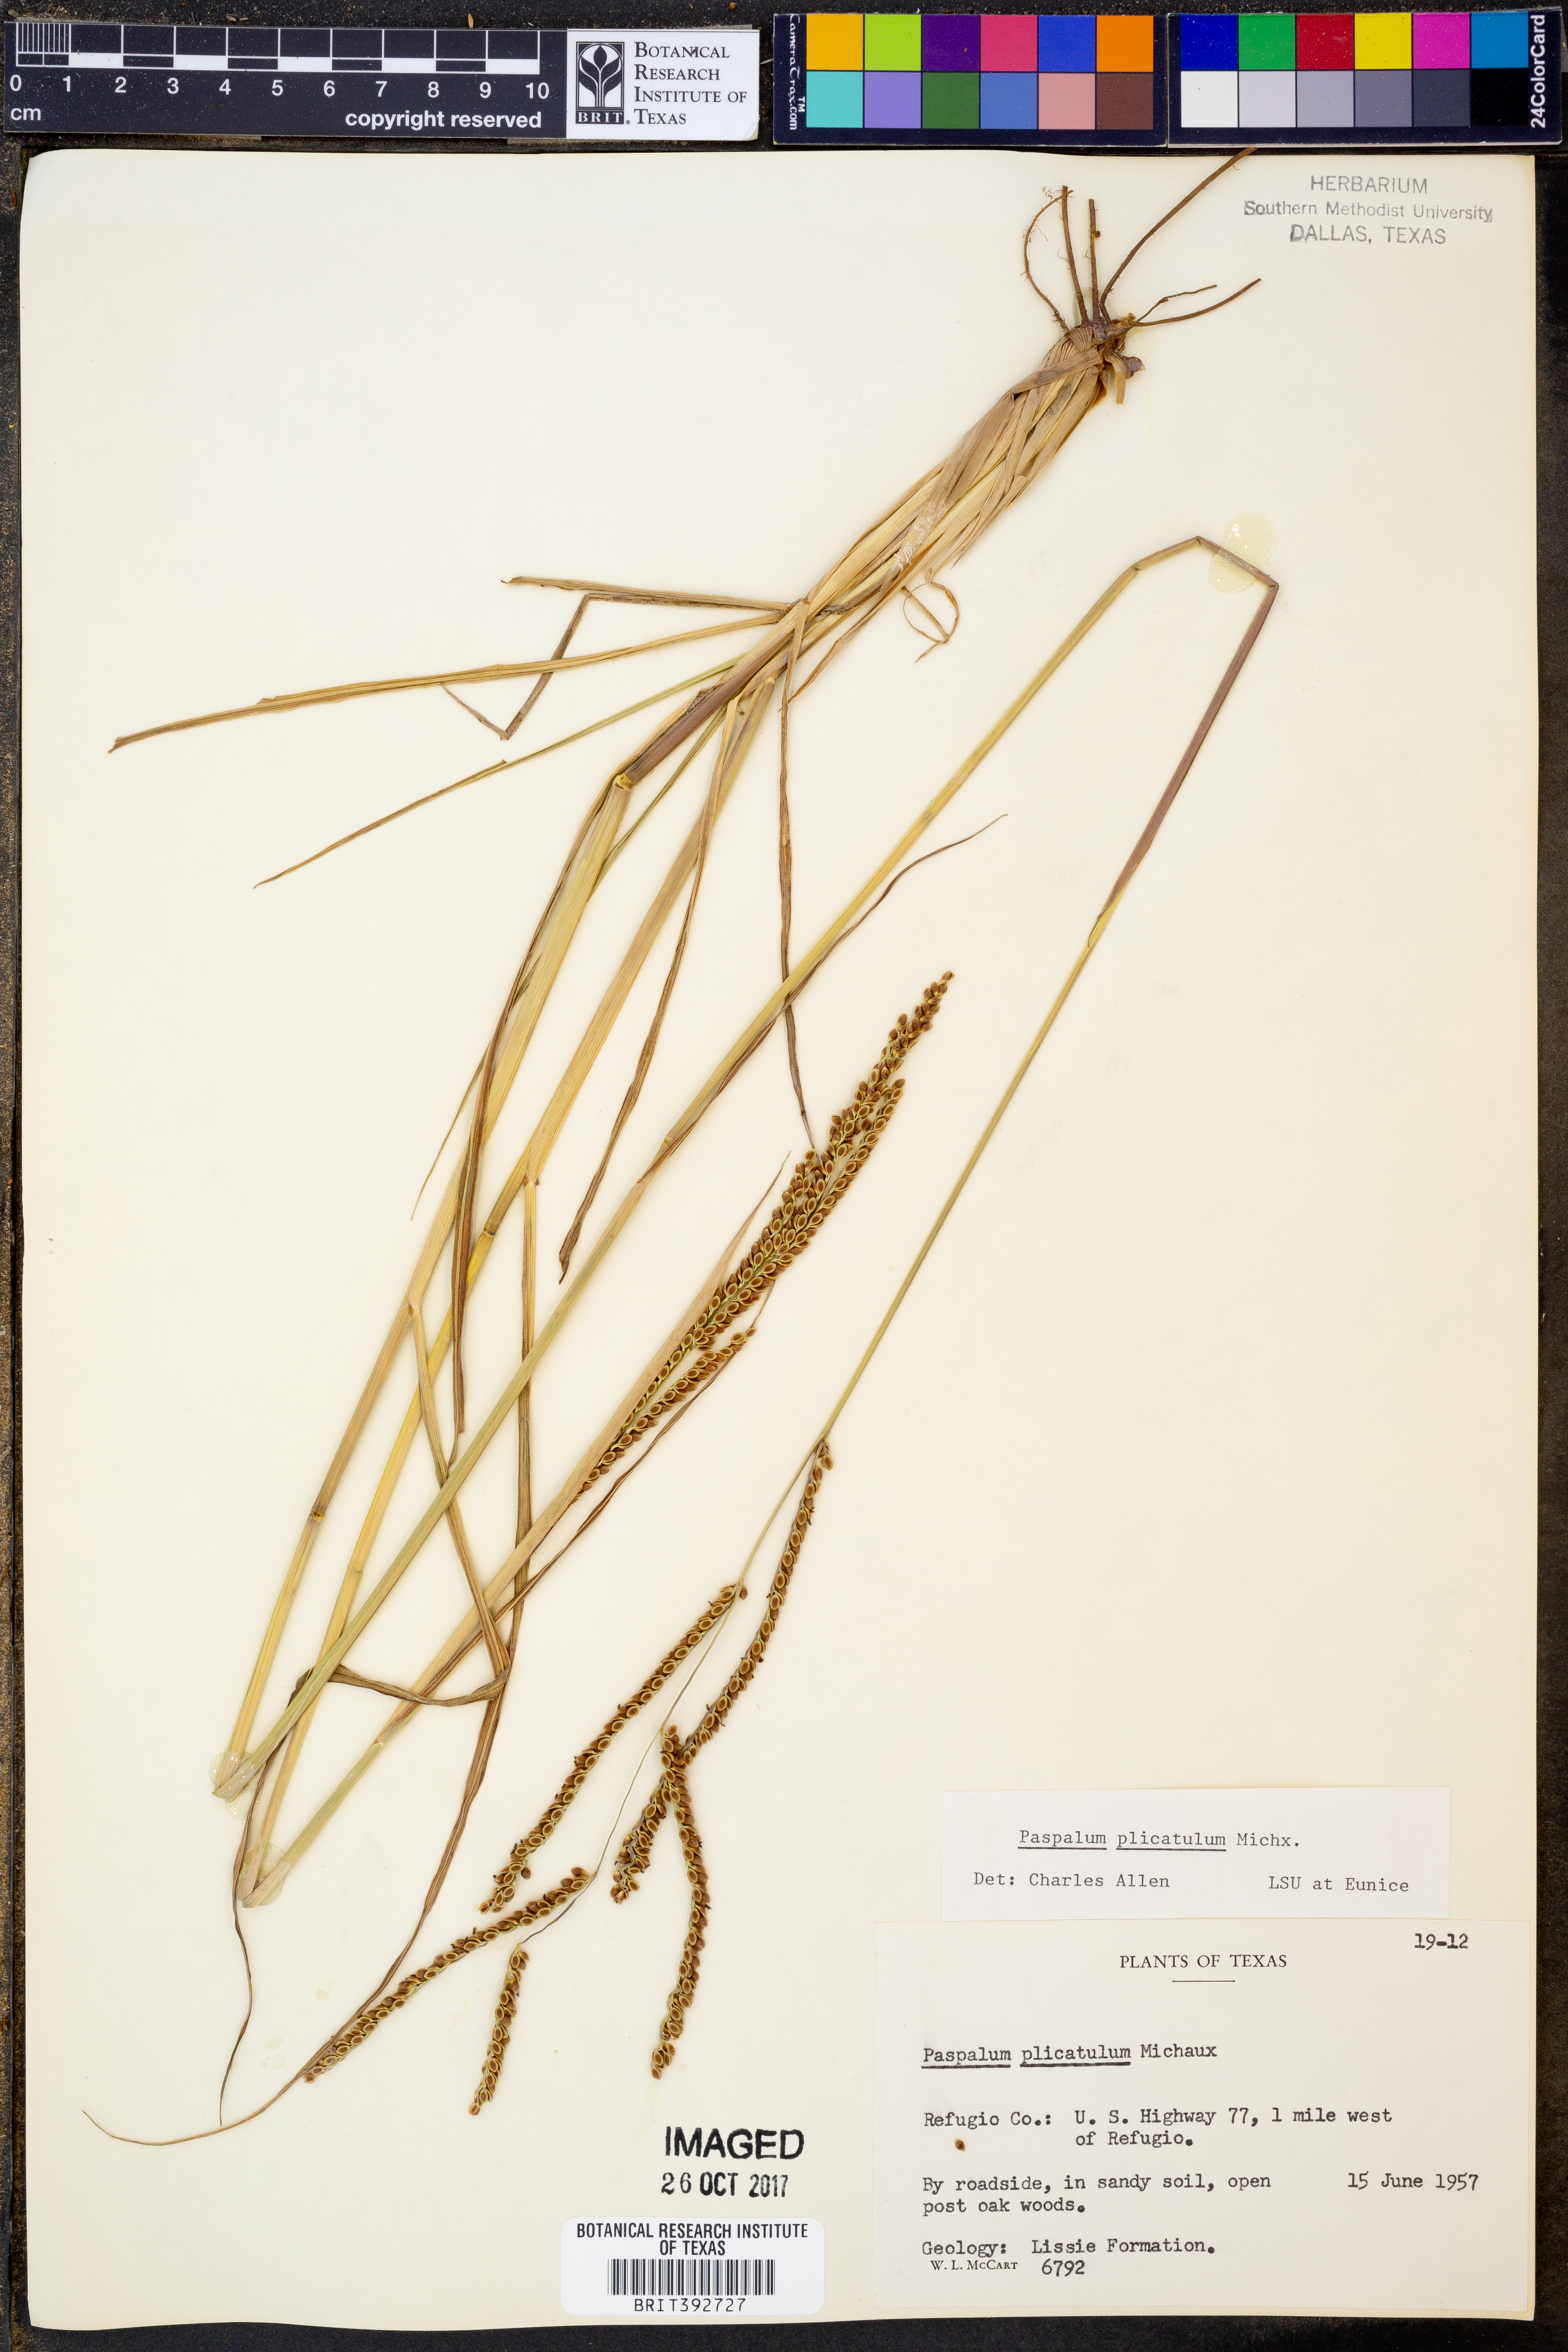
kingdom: Plantae
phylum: Tracheophyta
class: Liliopsida
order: Poales
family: Poaceae
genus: Paspalum
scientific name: Paspalum plicatulum
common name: Top paspalum
